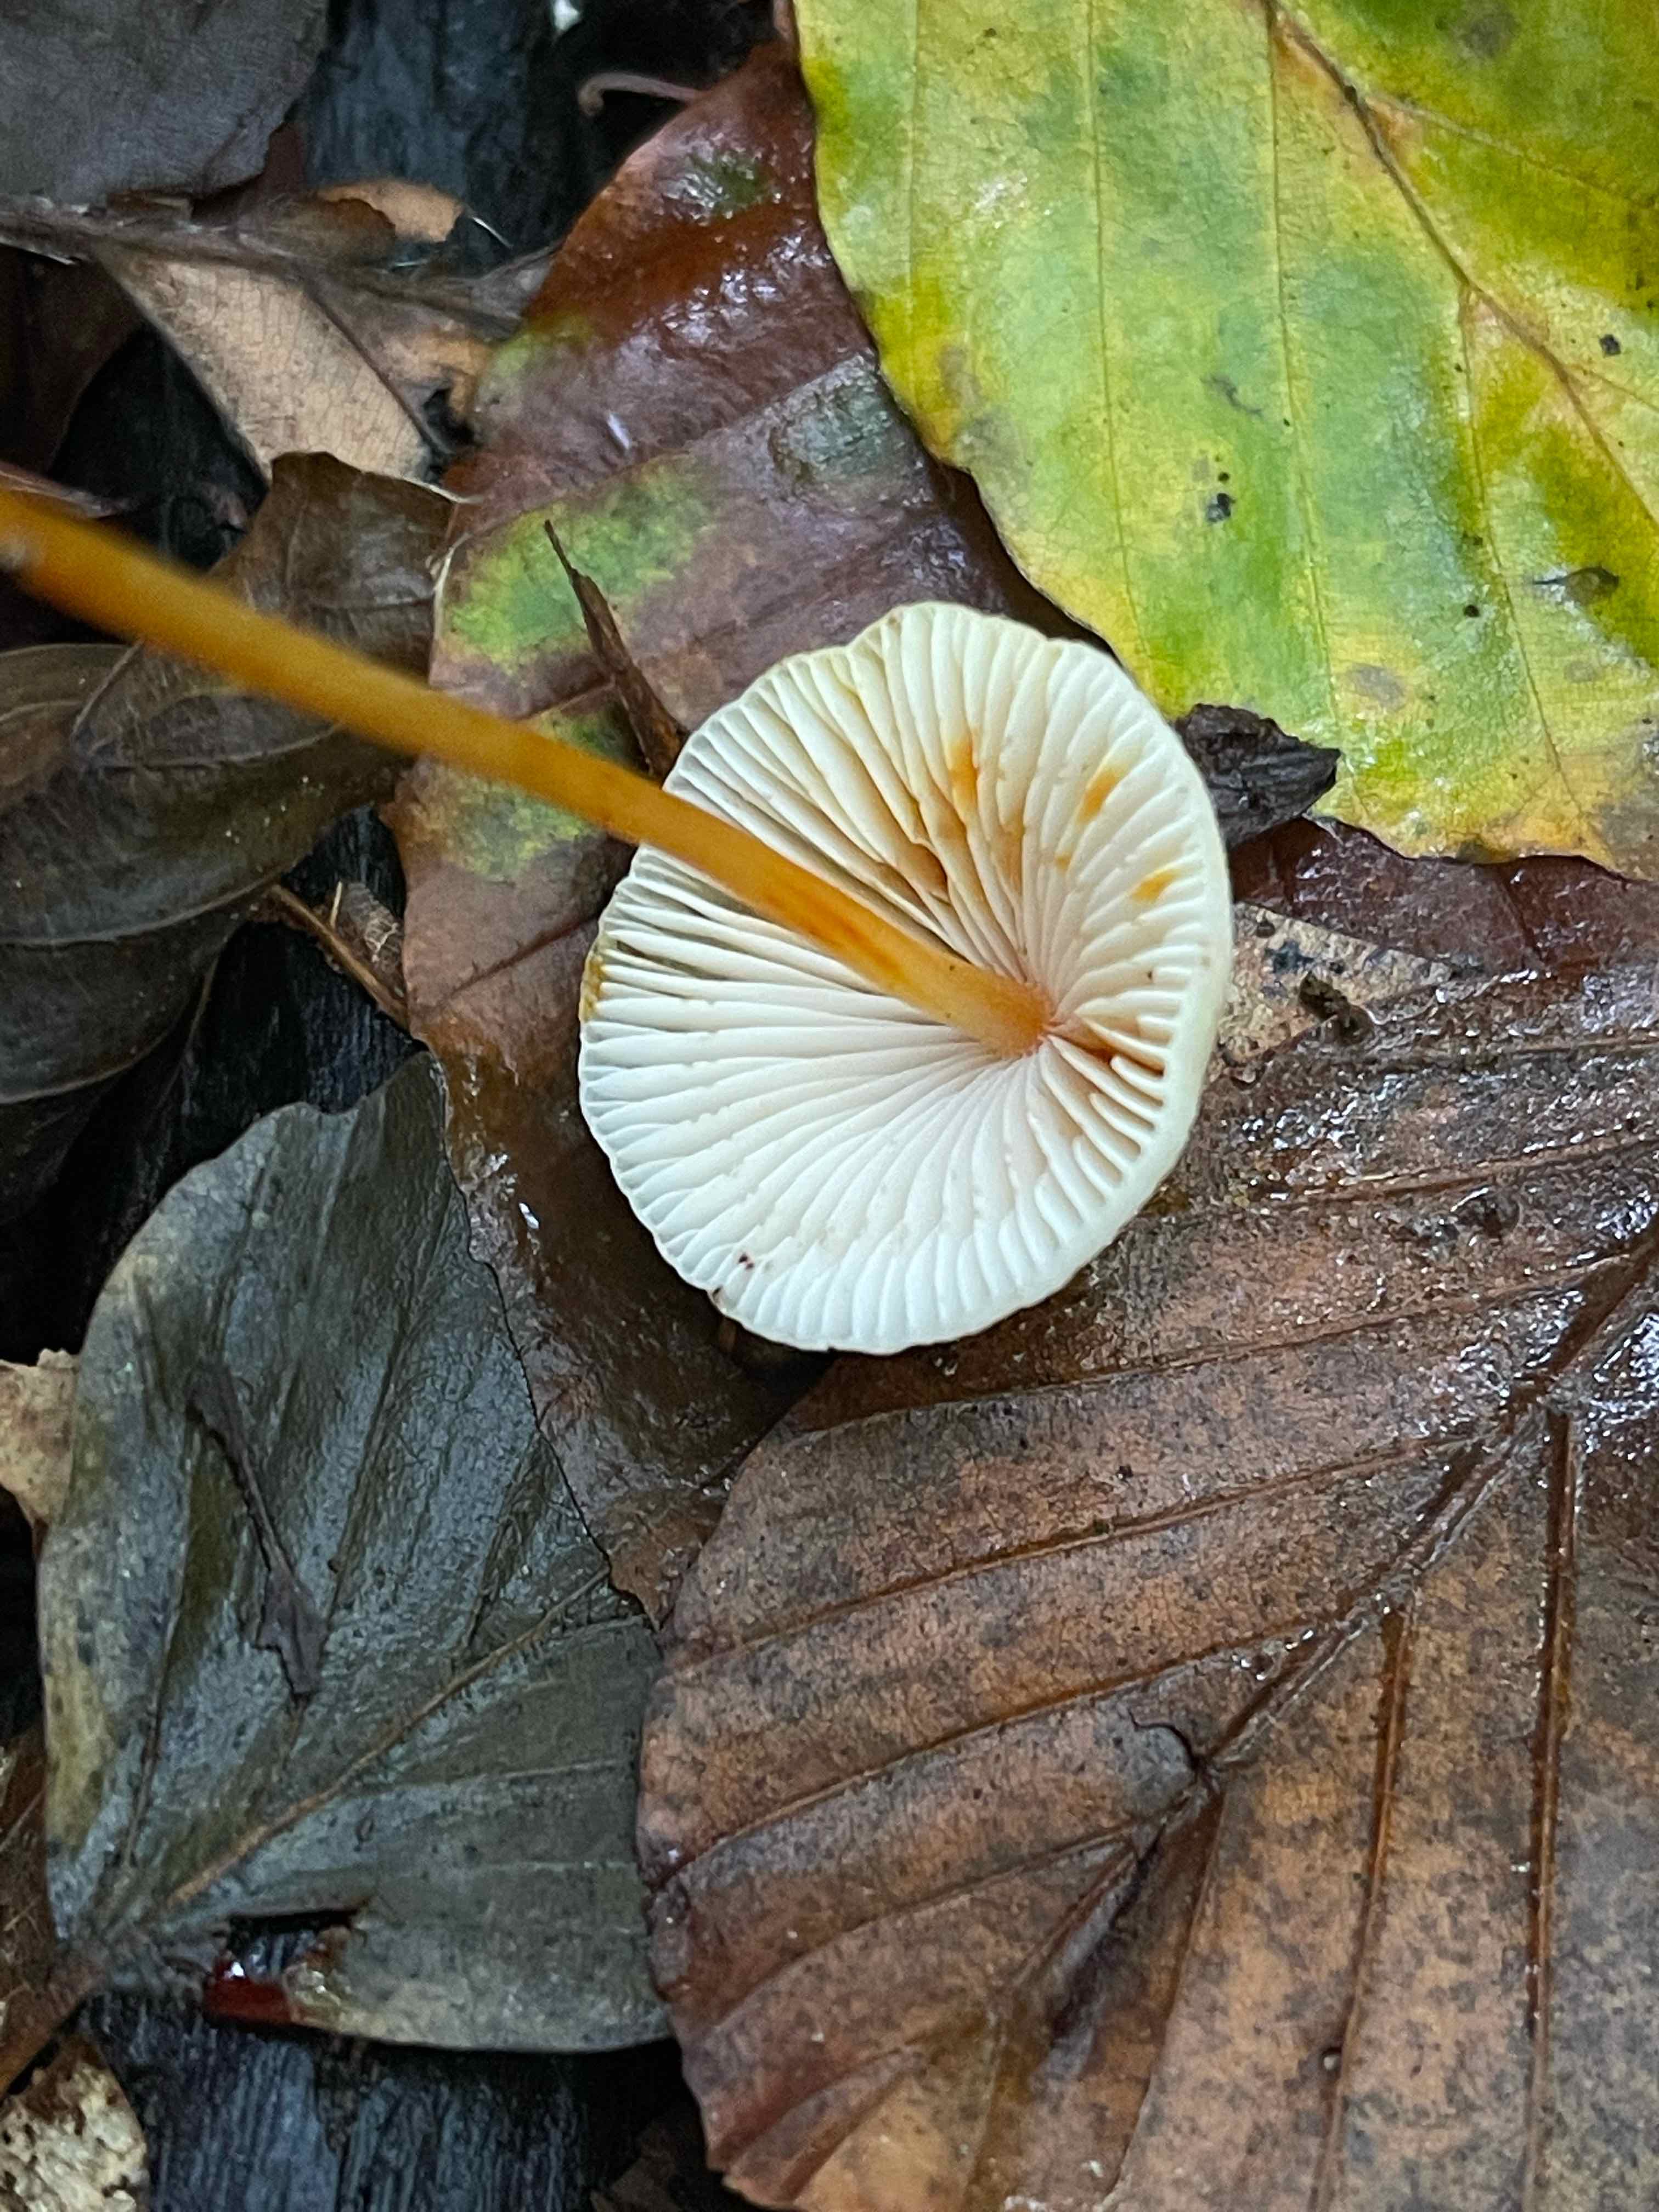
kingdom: Fungi
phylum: Basidiomycota
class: Agaricomycetes
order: Agaricales
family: Mycenaceae
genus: Mycena
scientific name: Mycena crocata
